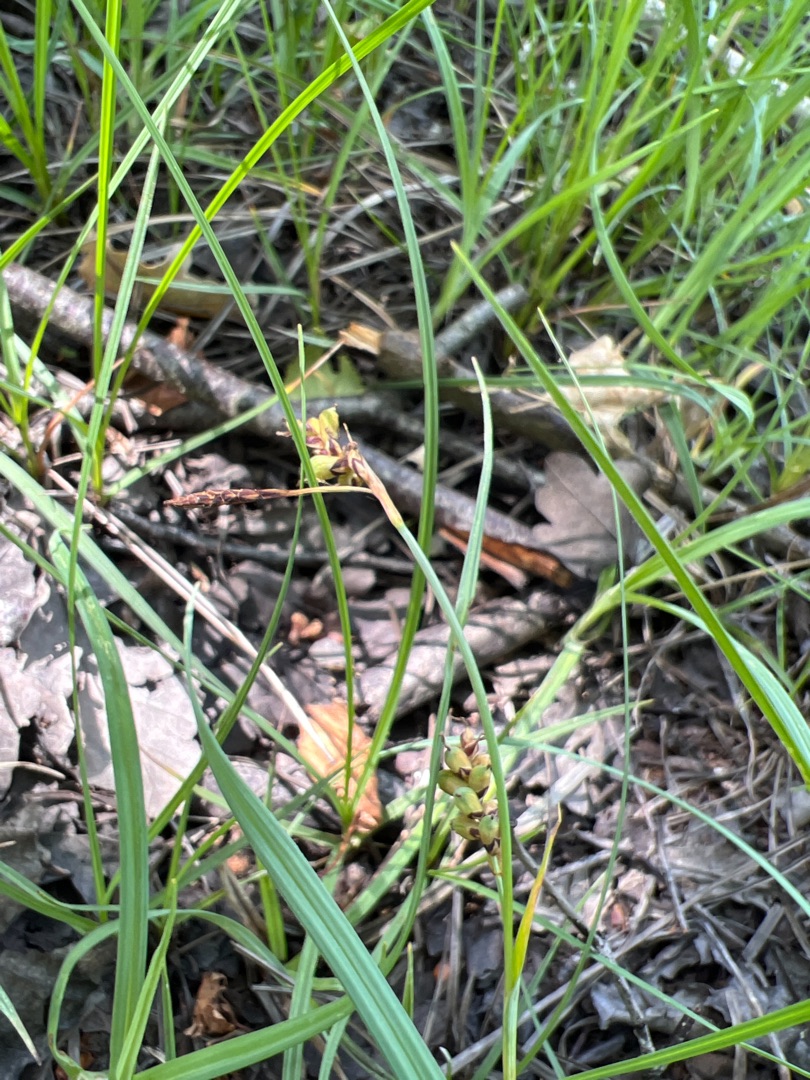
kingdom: Plantae
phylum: Tracheophyta
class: Liliopsida
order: Poales
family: Cyperaceae
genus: Carex
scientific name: Carex panicea
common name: Hirse-star
